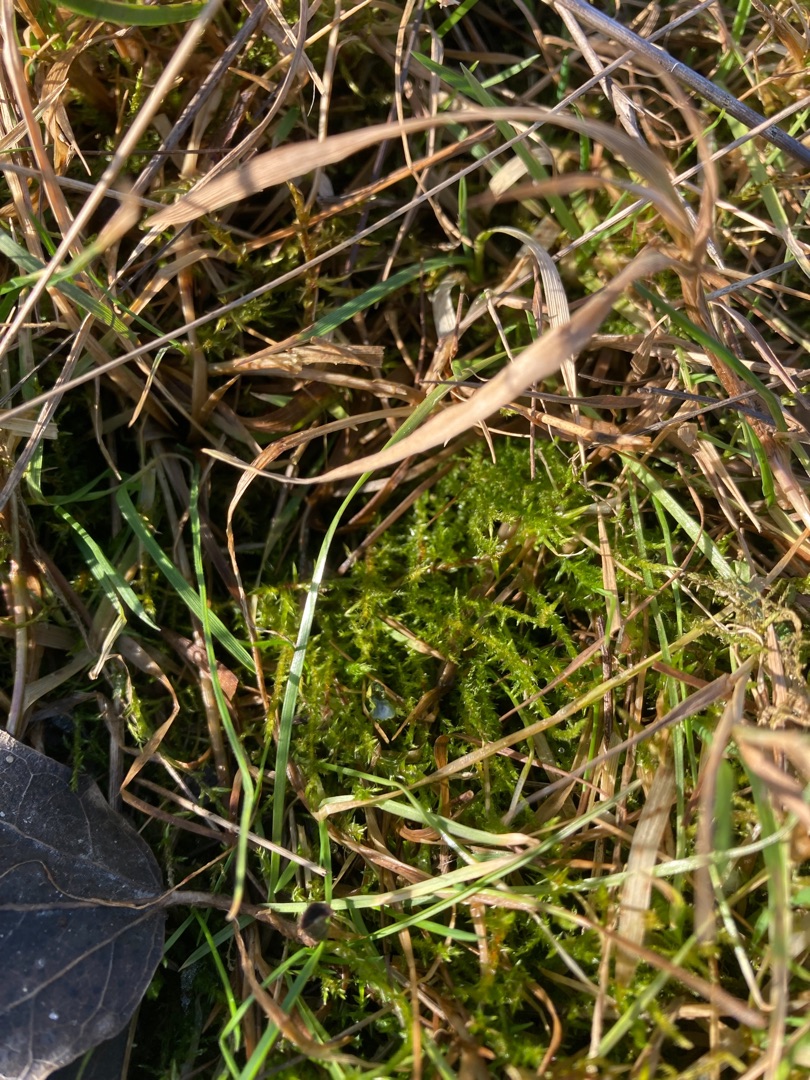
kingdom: Plantae
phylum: Bryophyta
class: Bryopsida
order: Hypnales
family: Amblystegiaceae
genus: Cratoneuron
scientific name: Cratoneuron filicinum
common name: Grøn eremitmos
